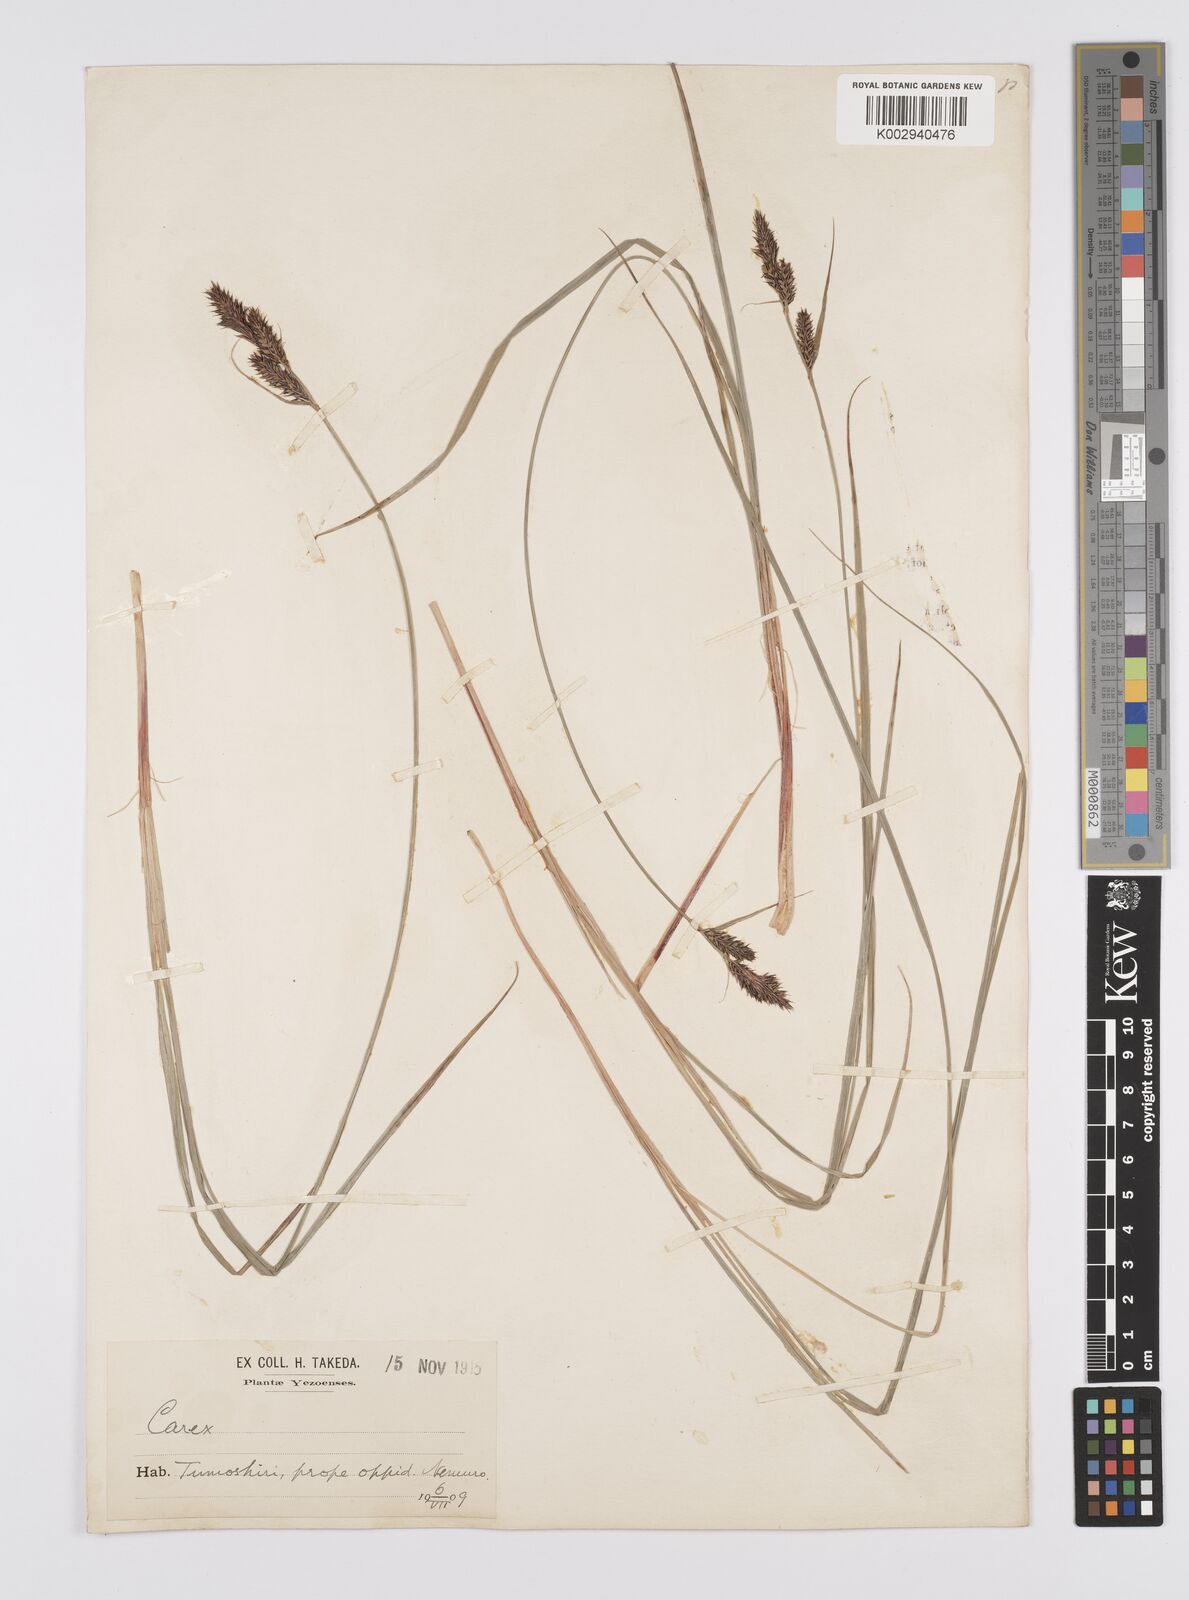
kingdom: Plantae
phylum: Tracheophyta
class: Liliopsida
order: Poales
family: Cyperaceae
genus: Carex
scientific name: Carex buxbaumii
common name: Club sedge
